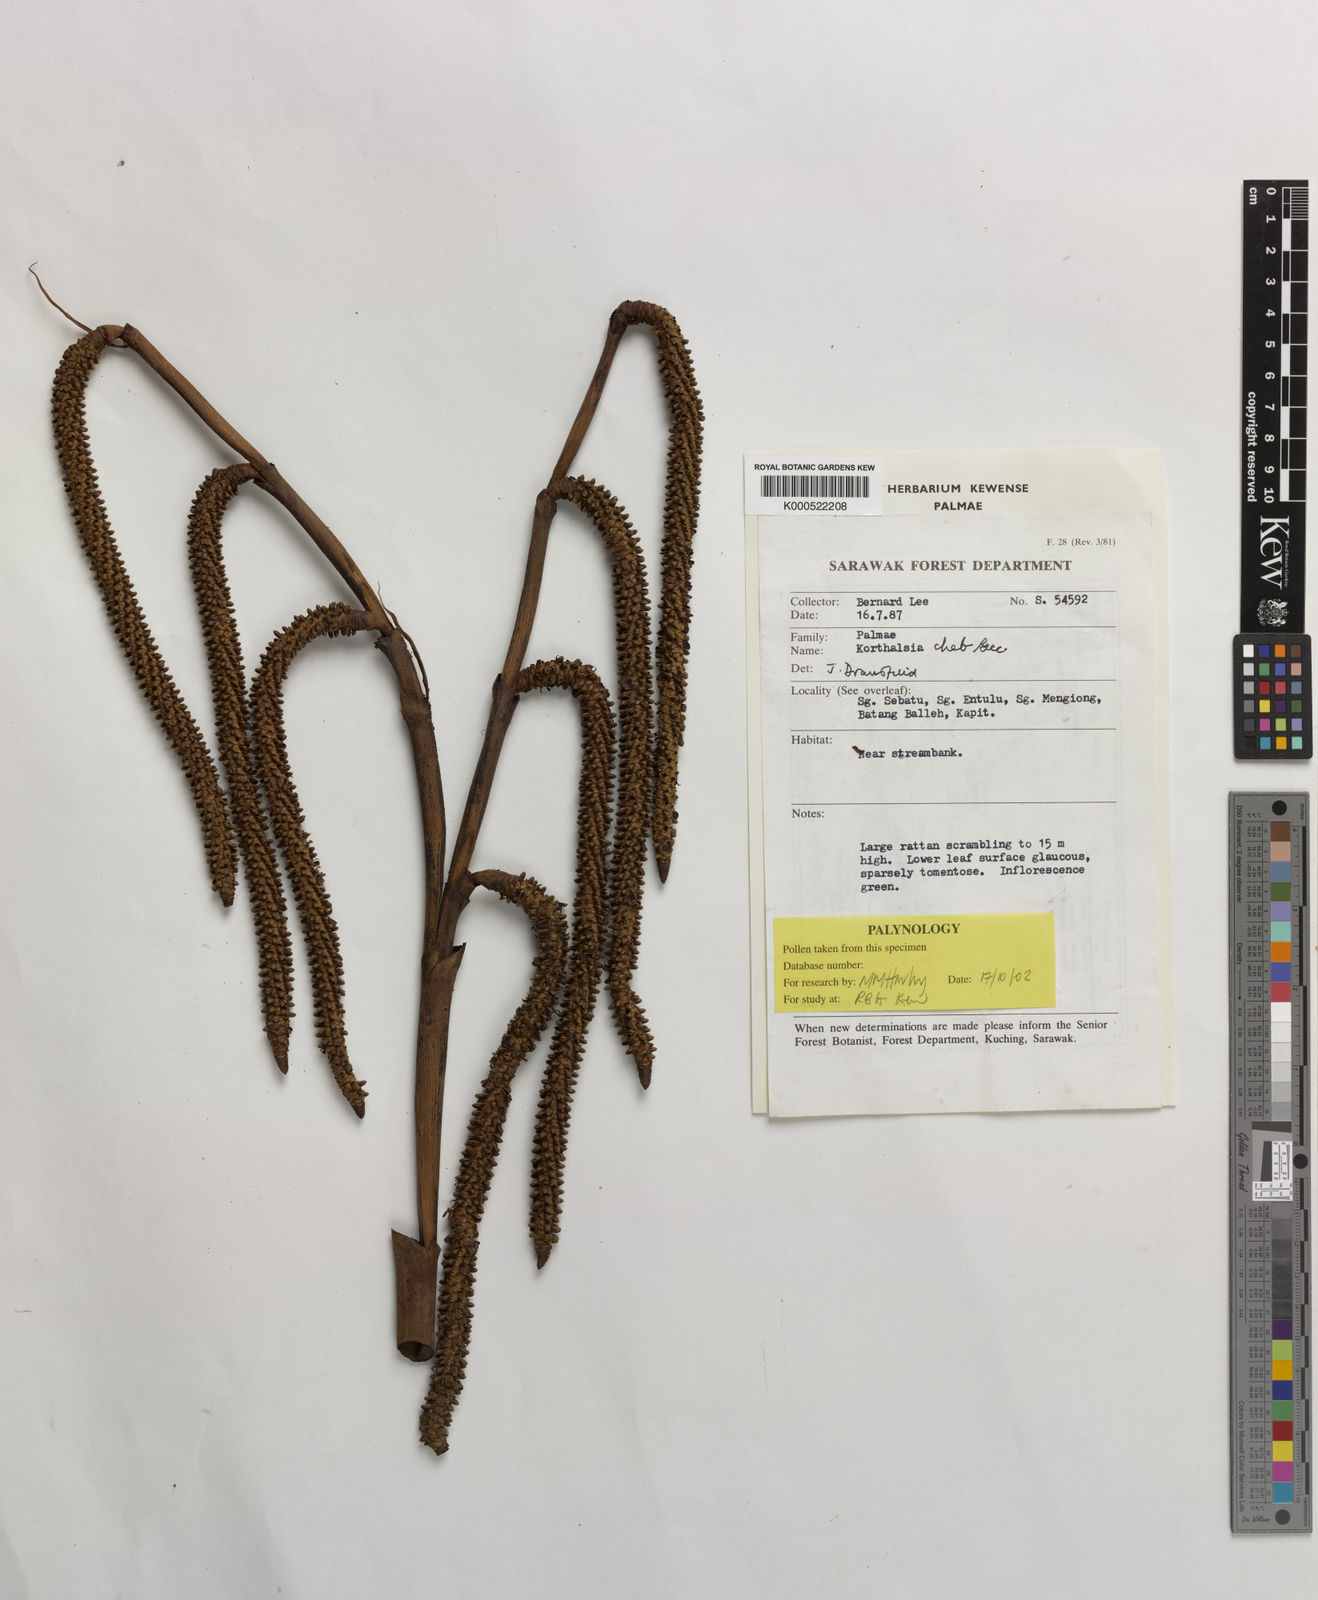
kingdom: Plantae
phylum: Tracheophyta
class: Liliopsida
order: Arecales
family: Arecaceae
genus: Korthalsia
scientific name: Korthalsia cheb
